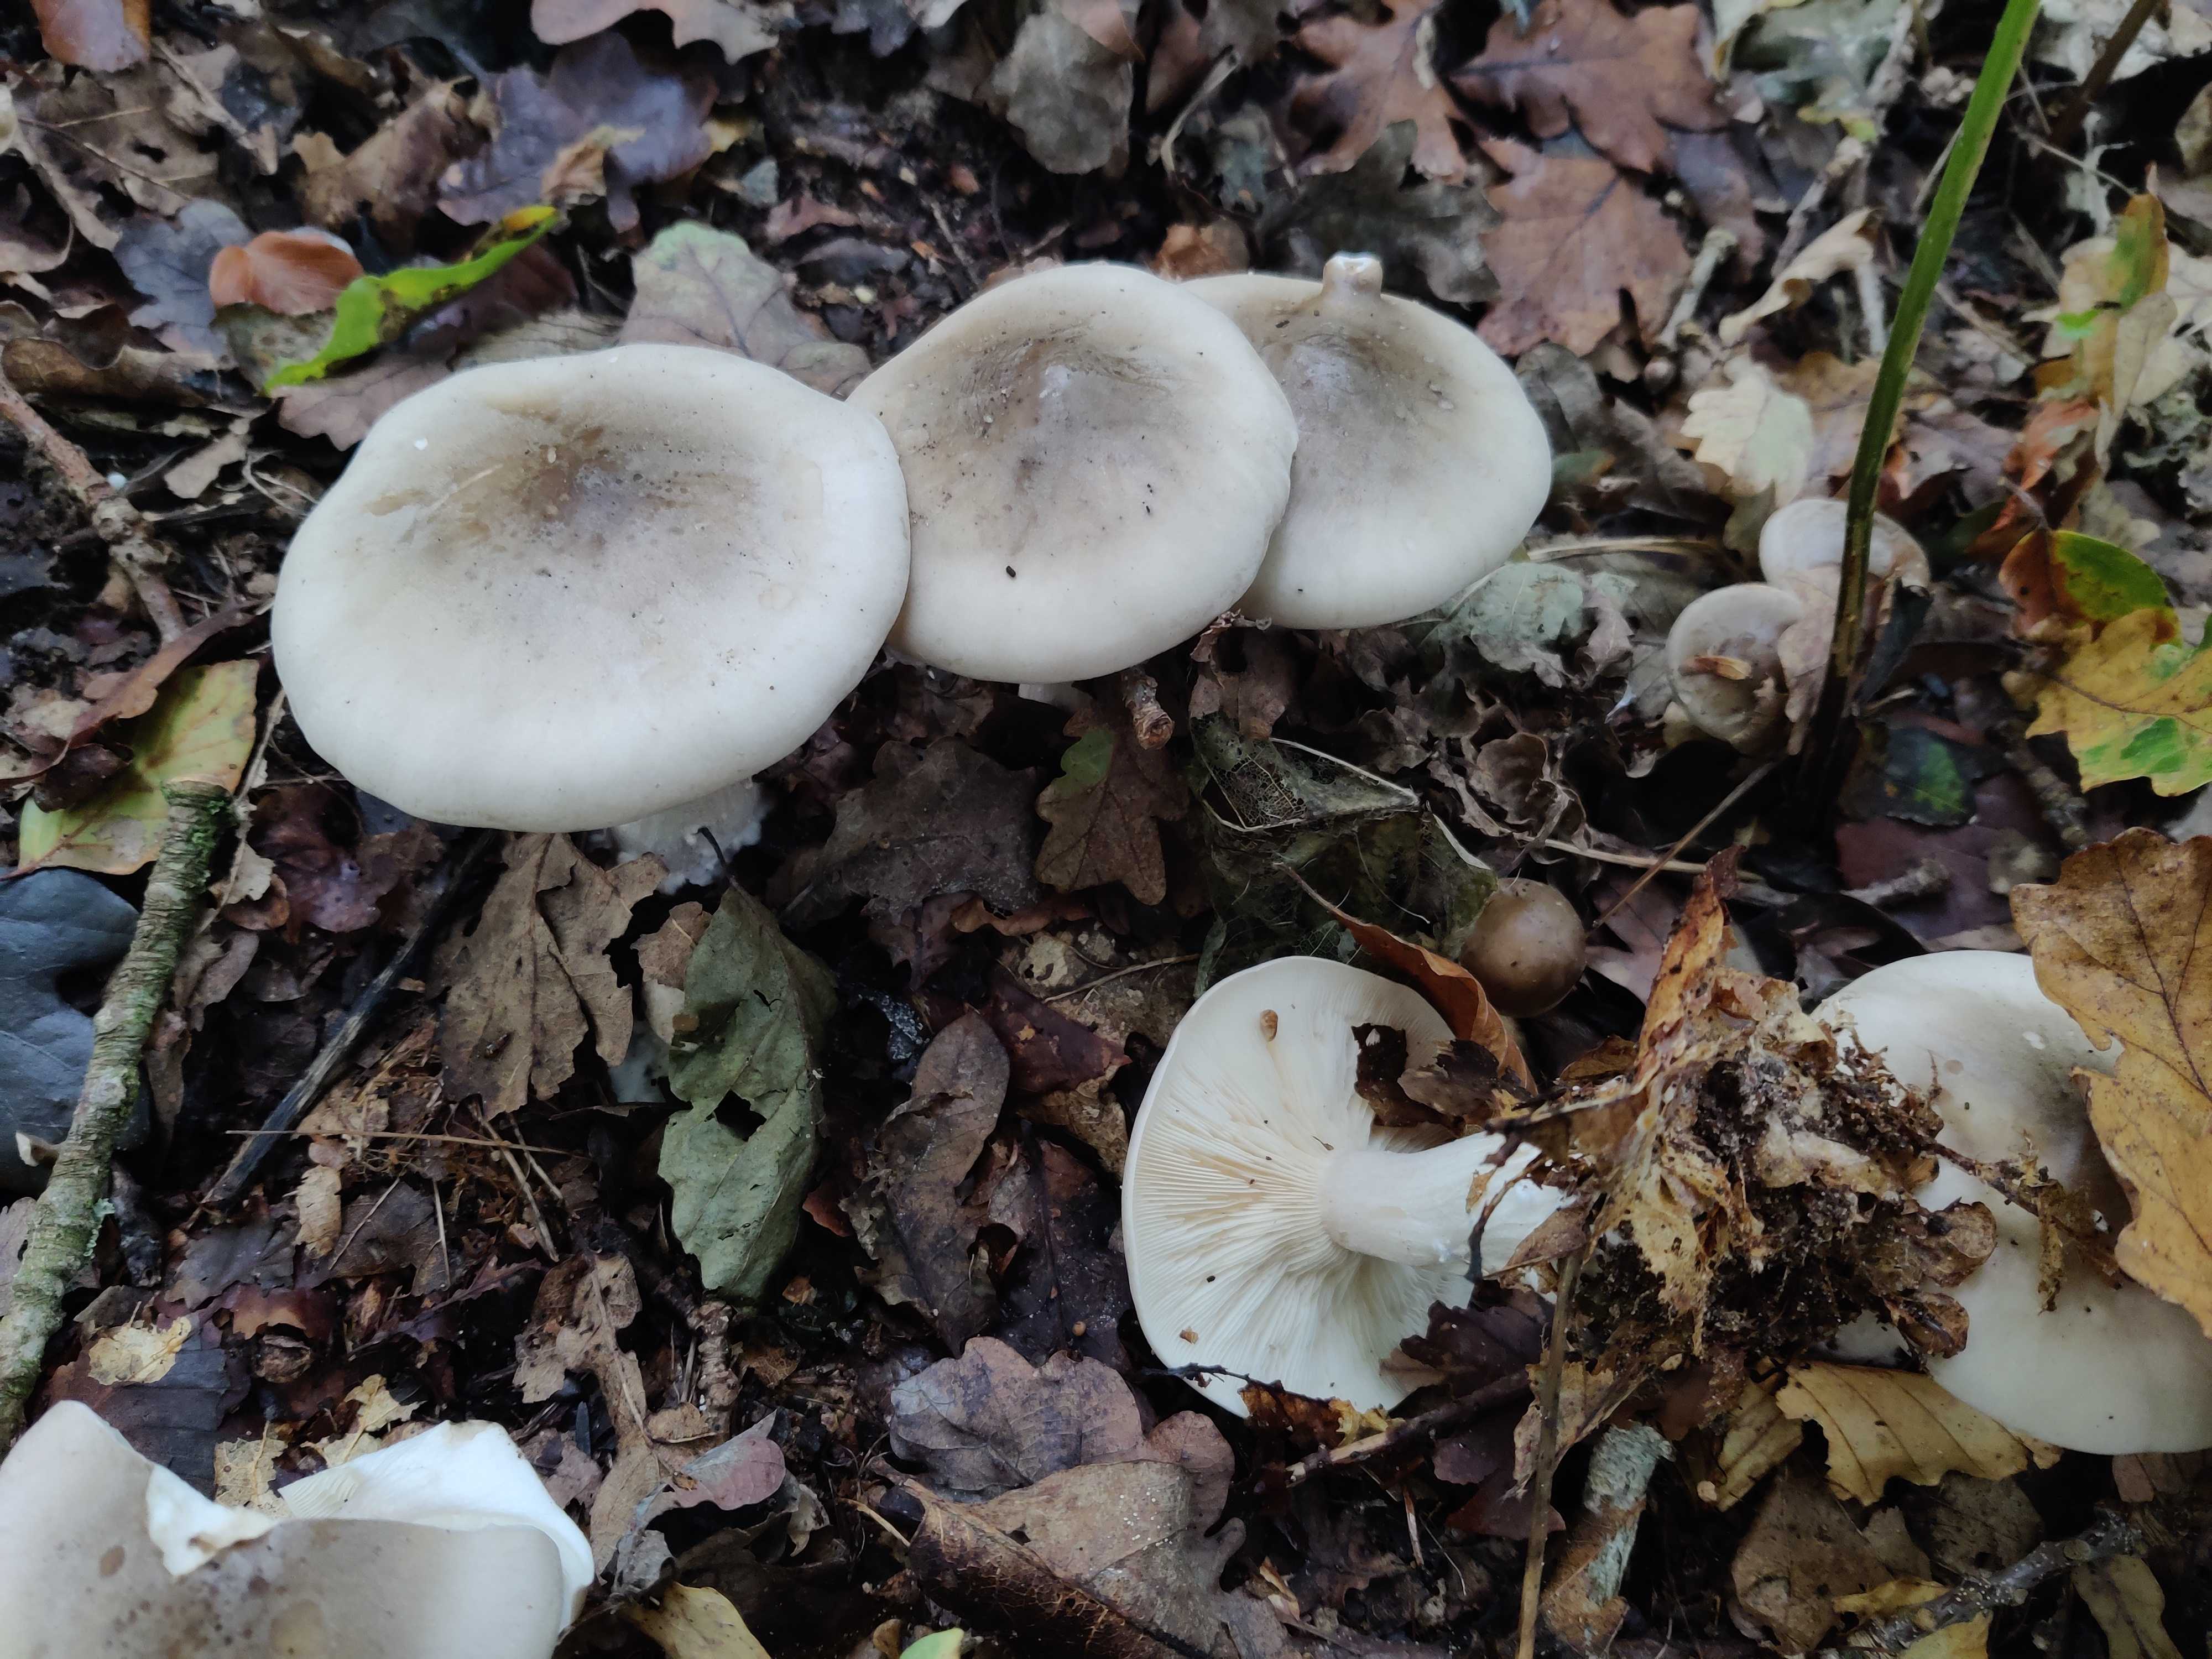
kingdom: Fungi
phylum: Basidiomycota
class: Agaricomycetes
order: Agaricales
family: Tricholomataceae
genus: Clitocybe
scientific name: Clitocybe nebularis
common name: tåge-tragthat
